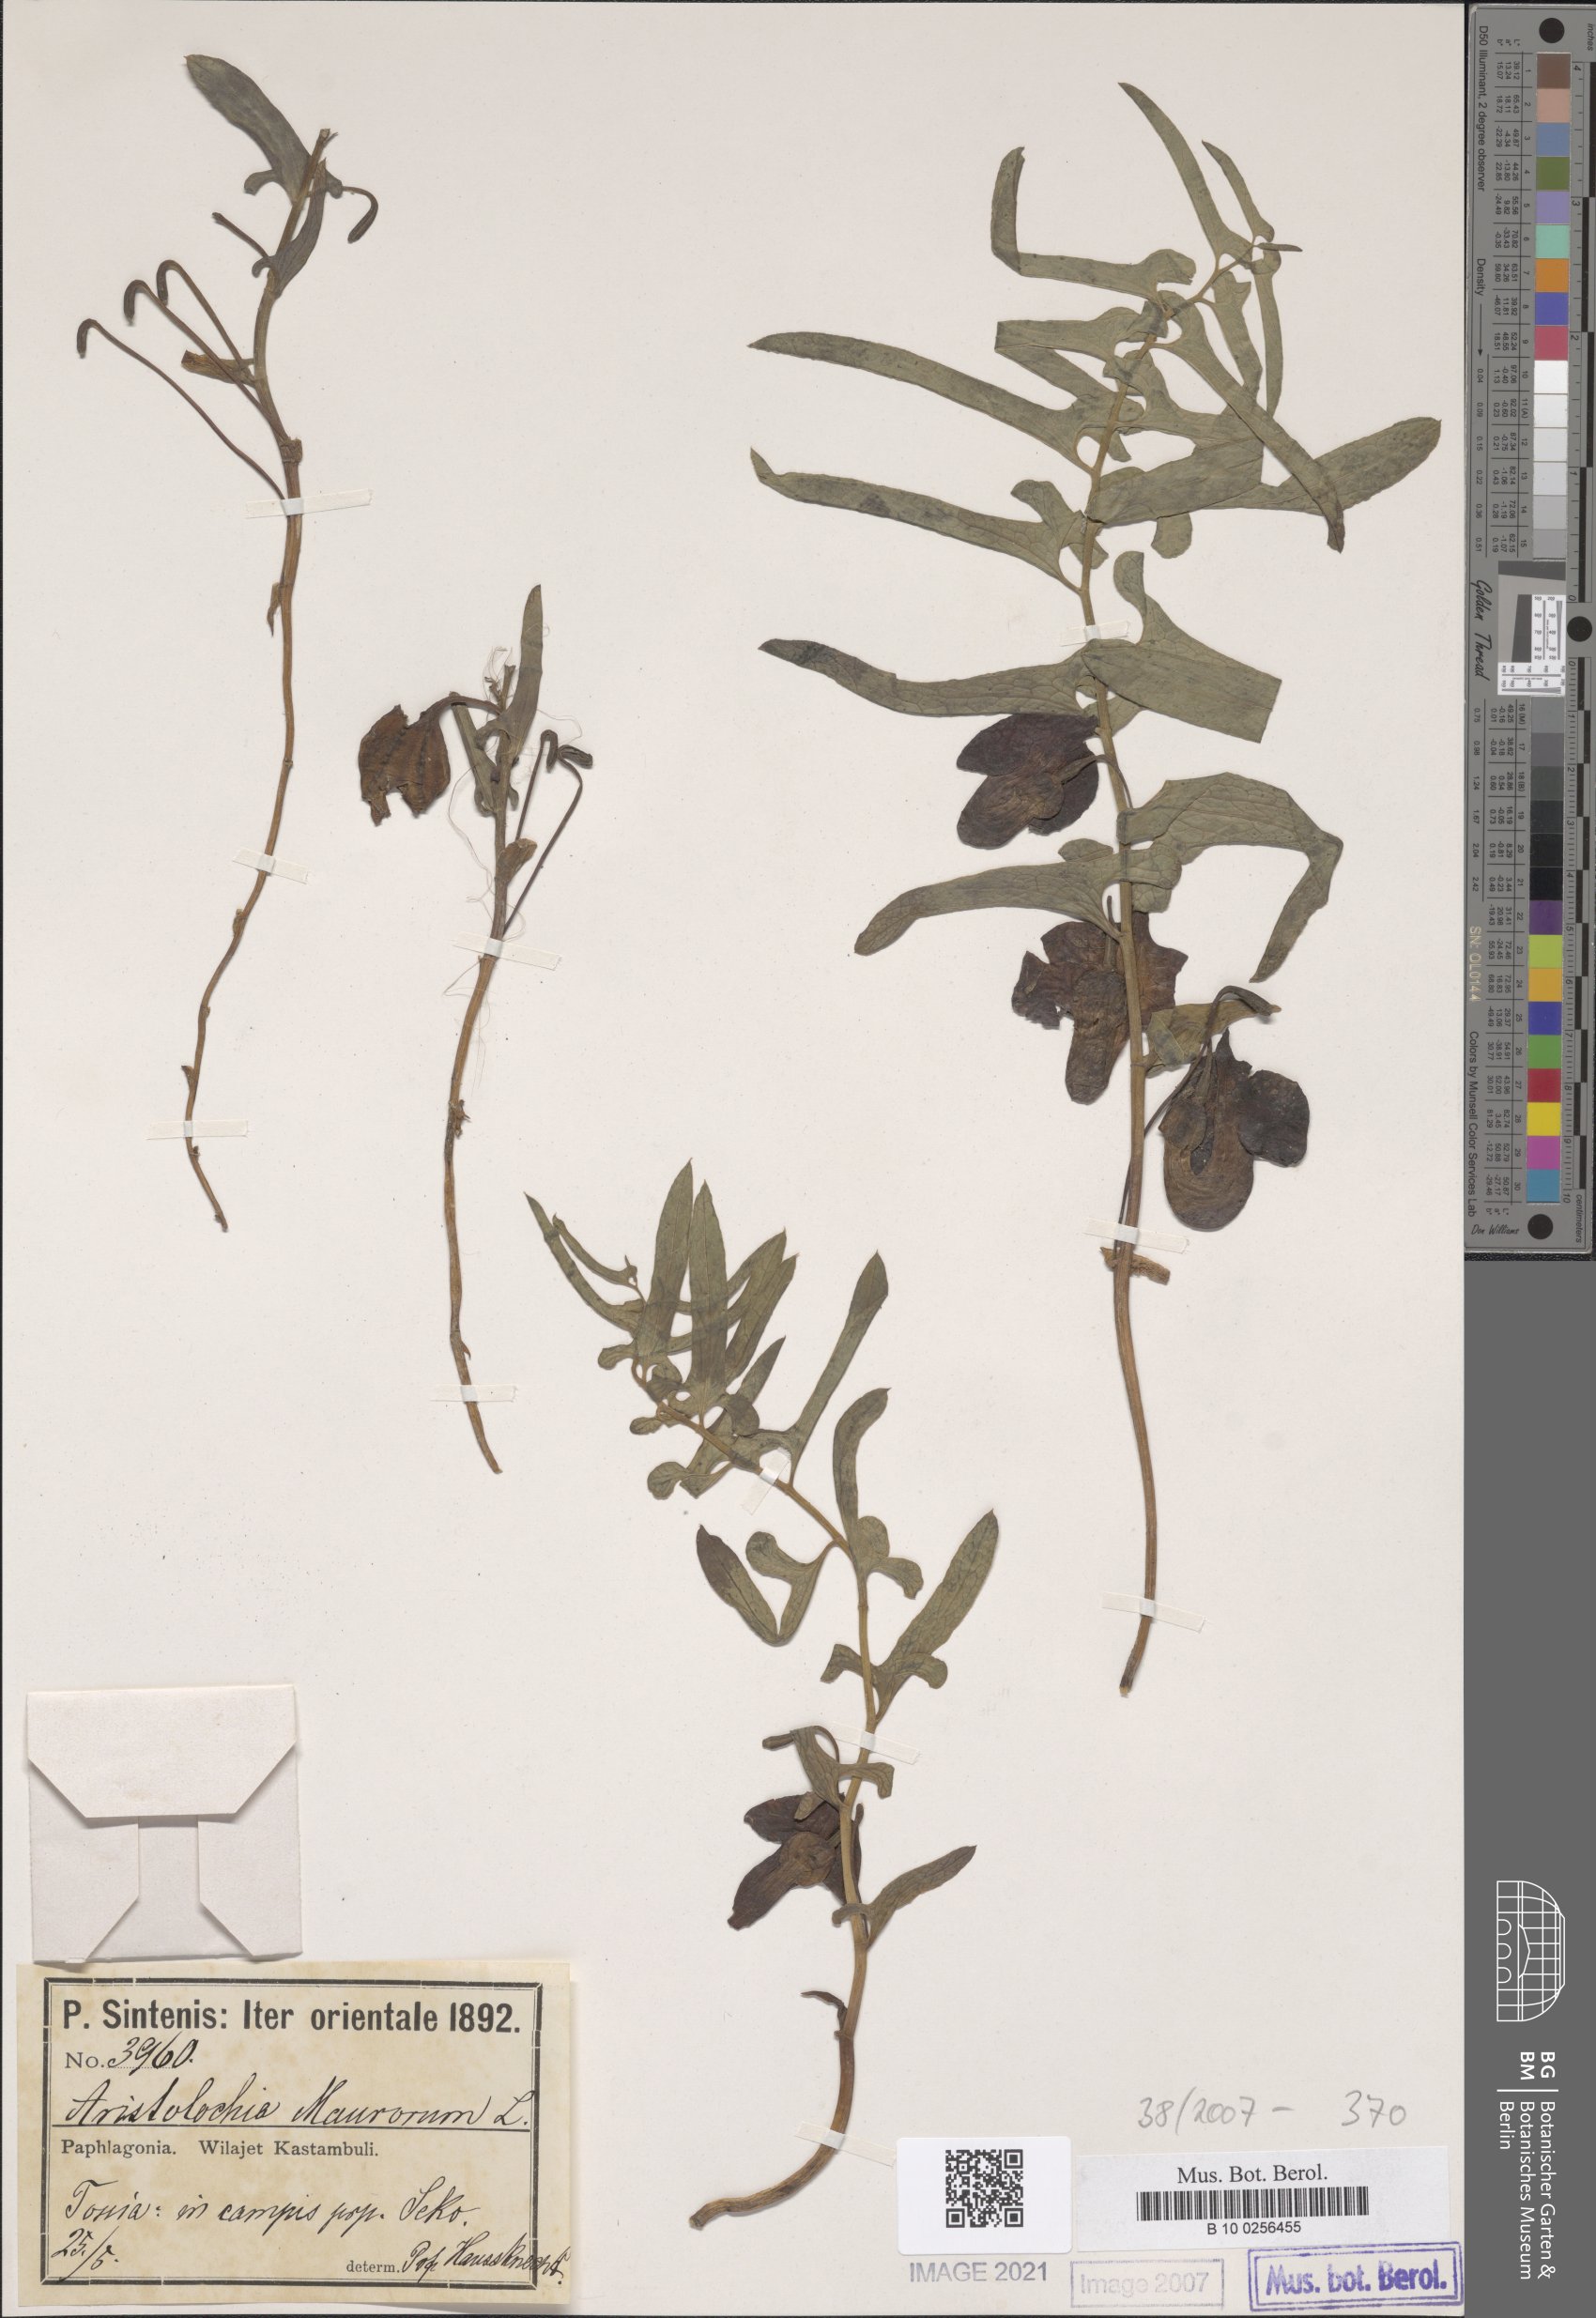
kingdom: Plantae
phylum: Tracheophyta
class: Magnoliopsida
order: Piperales
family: Aristolochiaceae
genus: Aristolochia
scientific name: Aristolochia maurorum
